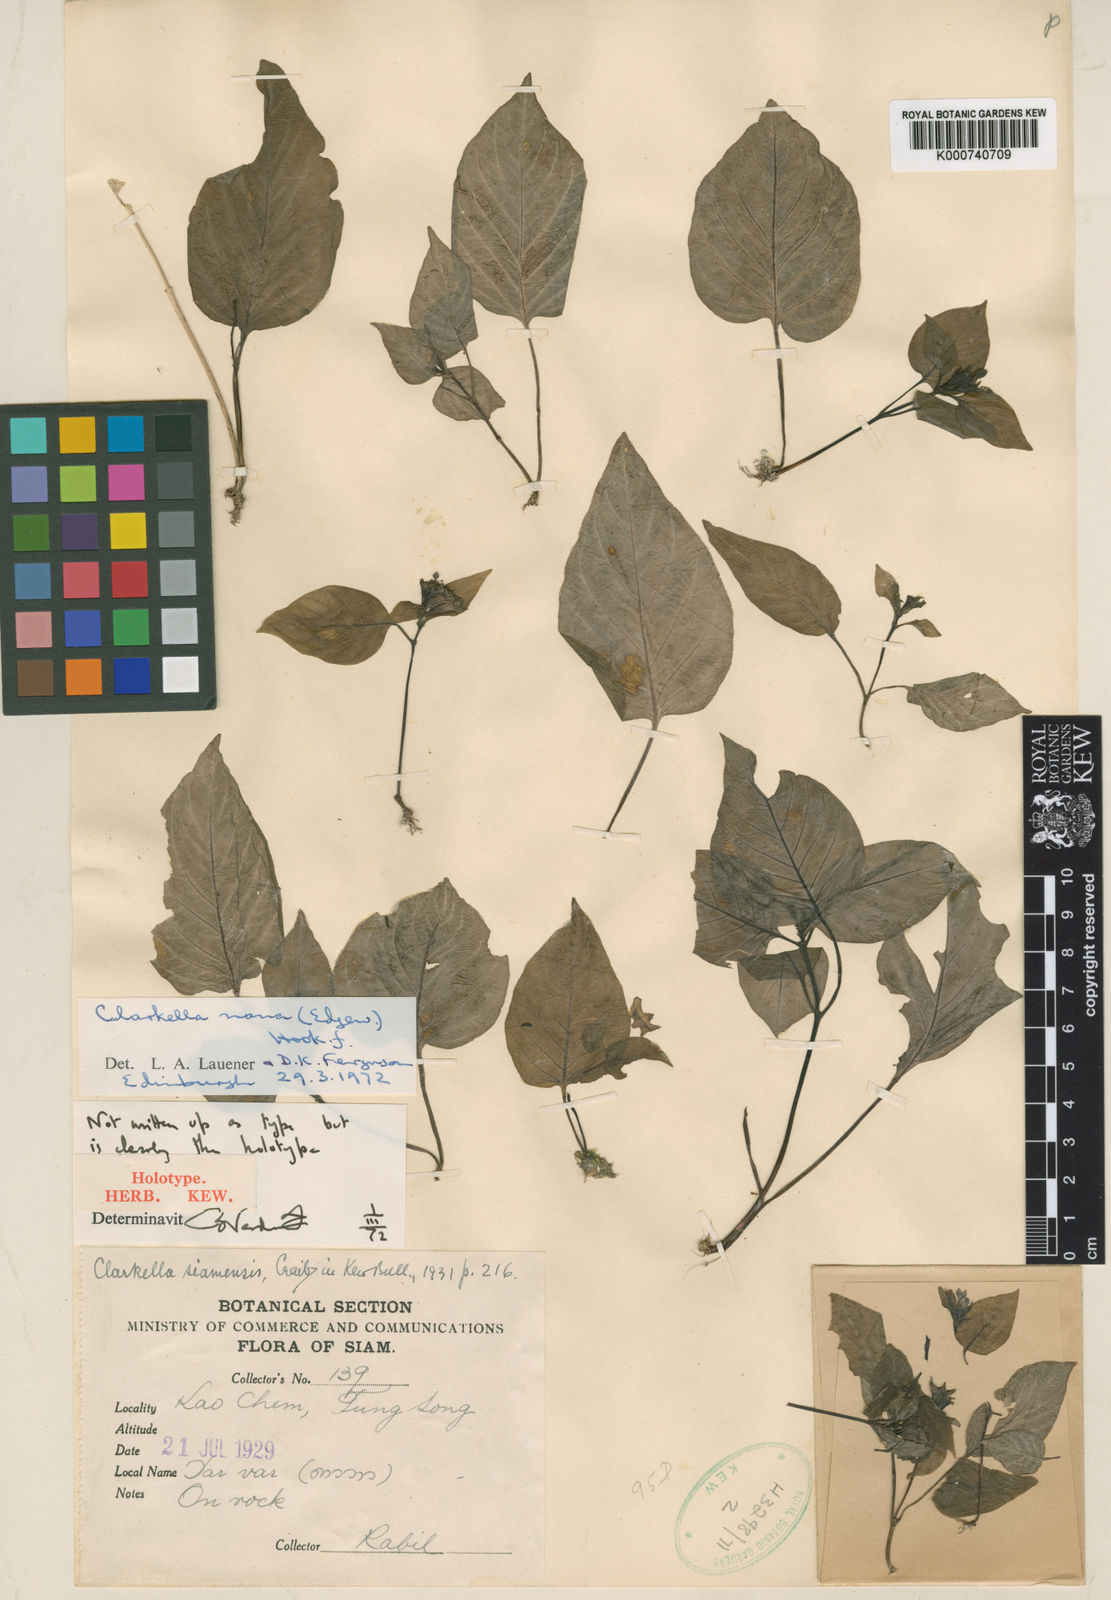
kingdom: Plantae
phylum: Tracheophyta
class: Magnoliopsida
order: Gentianales
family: Rubiaceae
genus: Clarkella
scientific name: Clarkella nana
